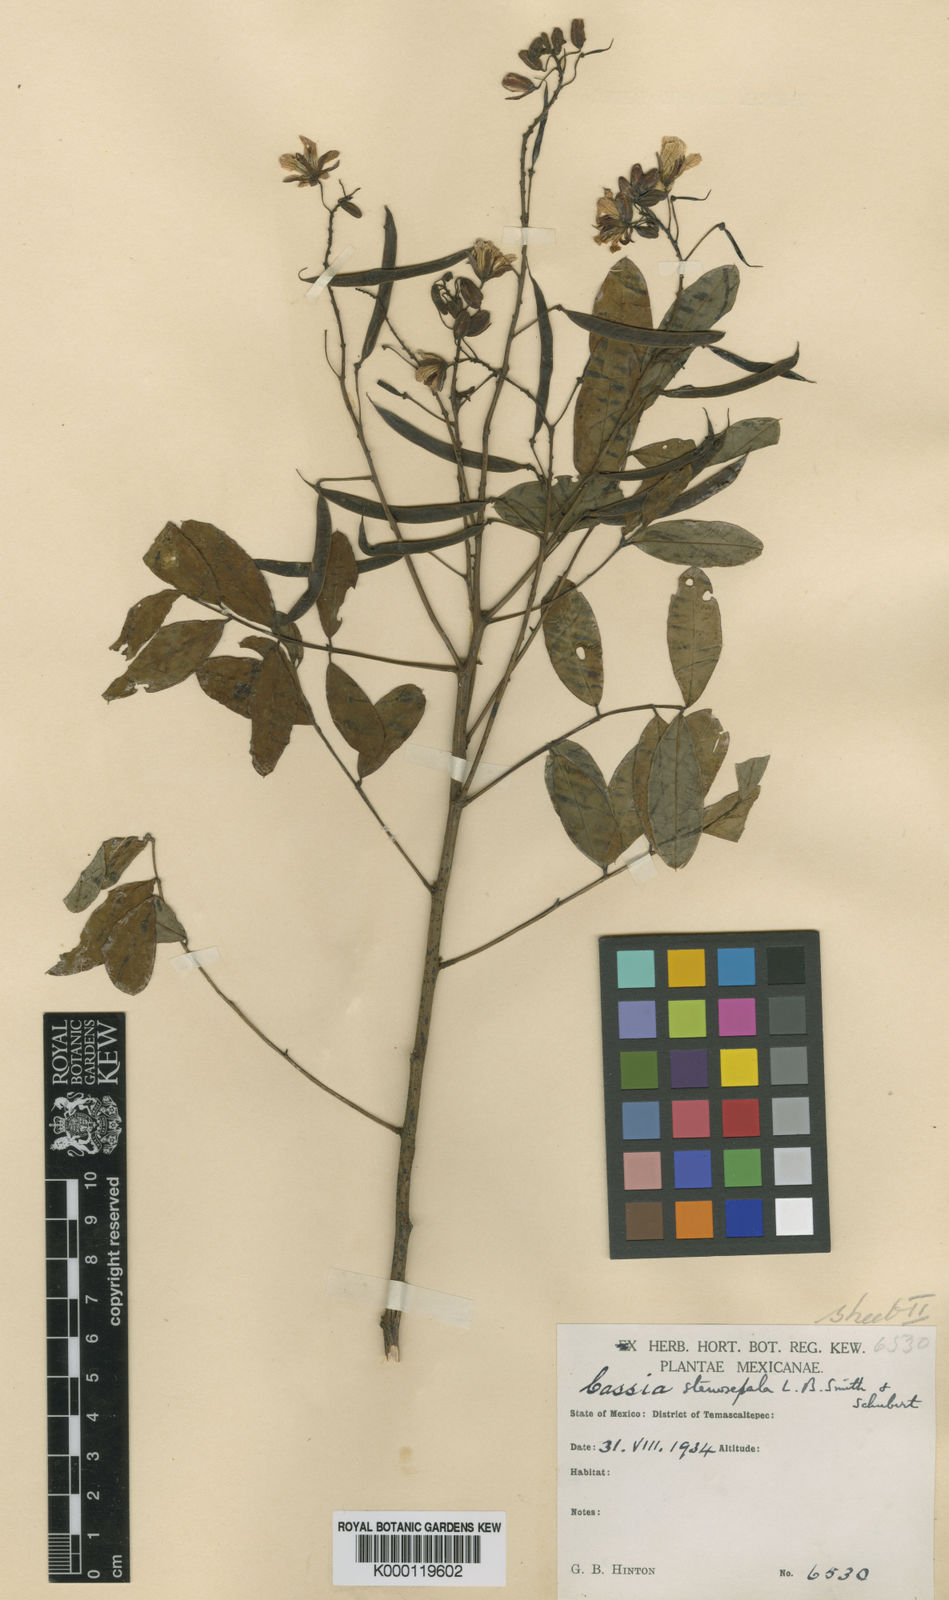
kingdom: Plantae
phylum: Tracheophyta
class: Magnoliopsida
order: Fabales
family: Fabaceae
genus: Senna
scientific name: Senna foetidissima
